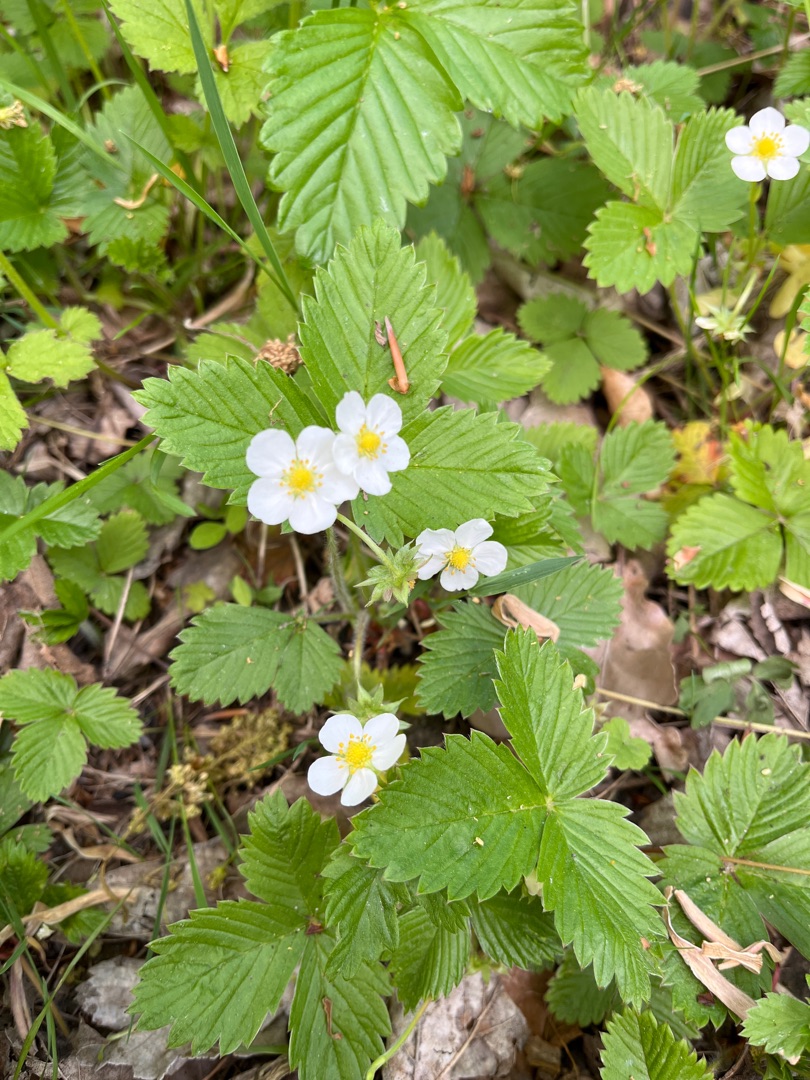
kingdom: Plantae
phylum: Tracheophyta
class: Magnoliopsida
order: Rosales
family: Rosaceae
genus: Fragaria
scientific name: Fragaria vesca
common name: Skov-jordbær
